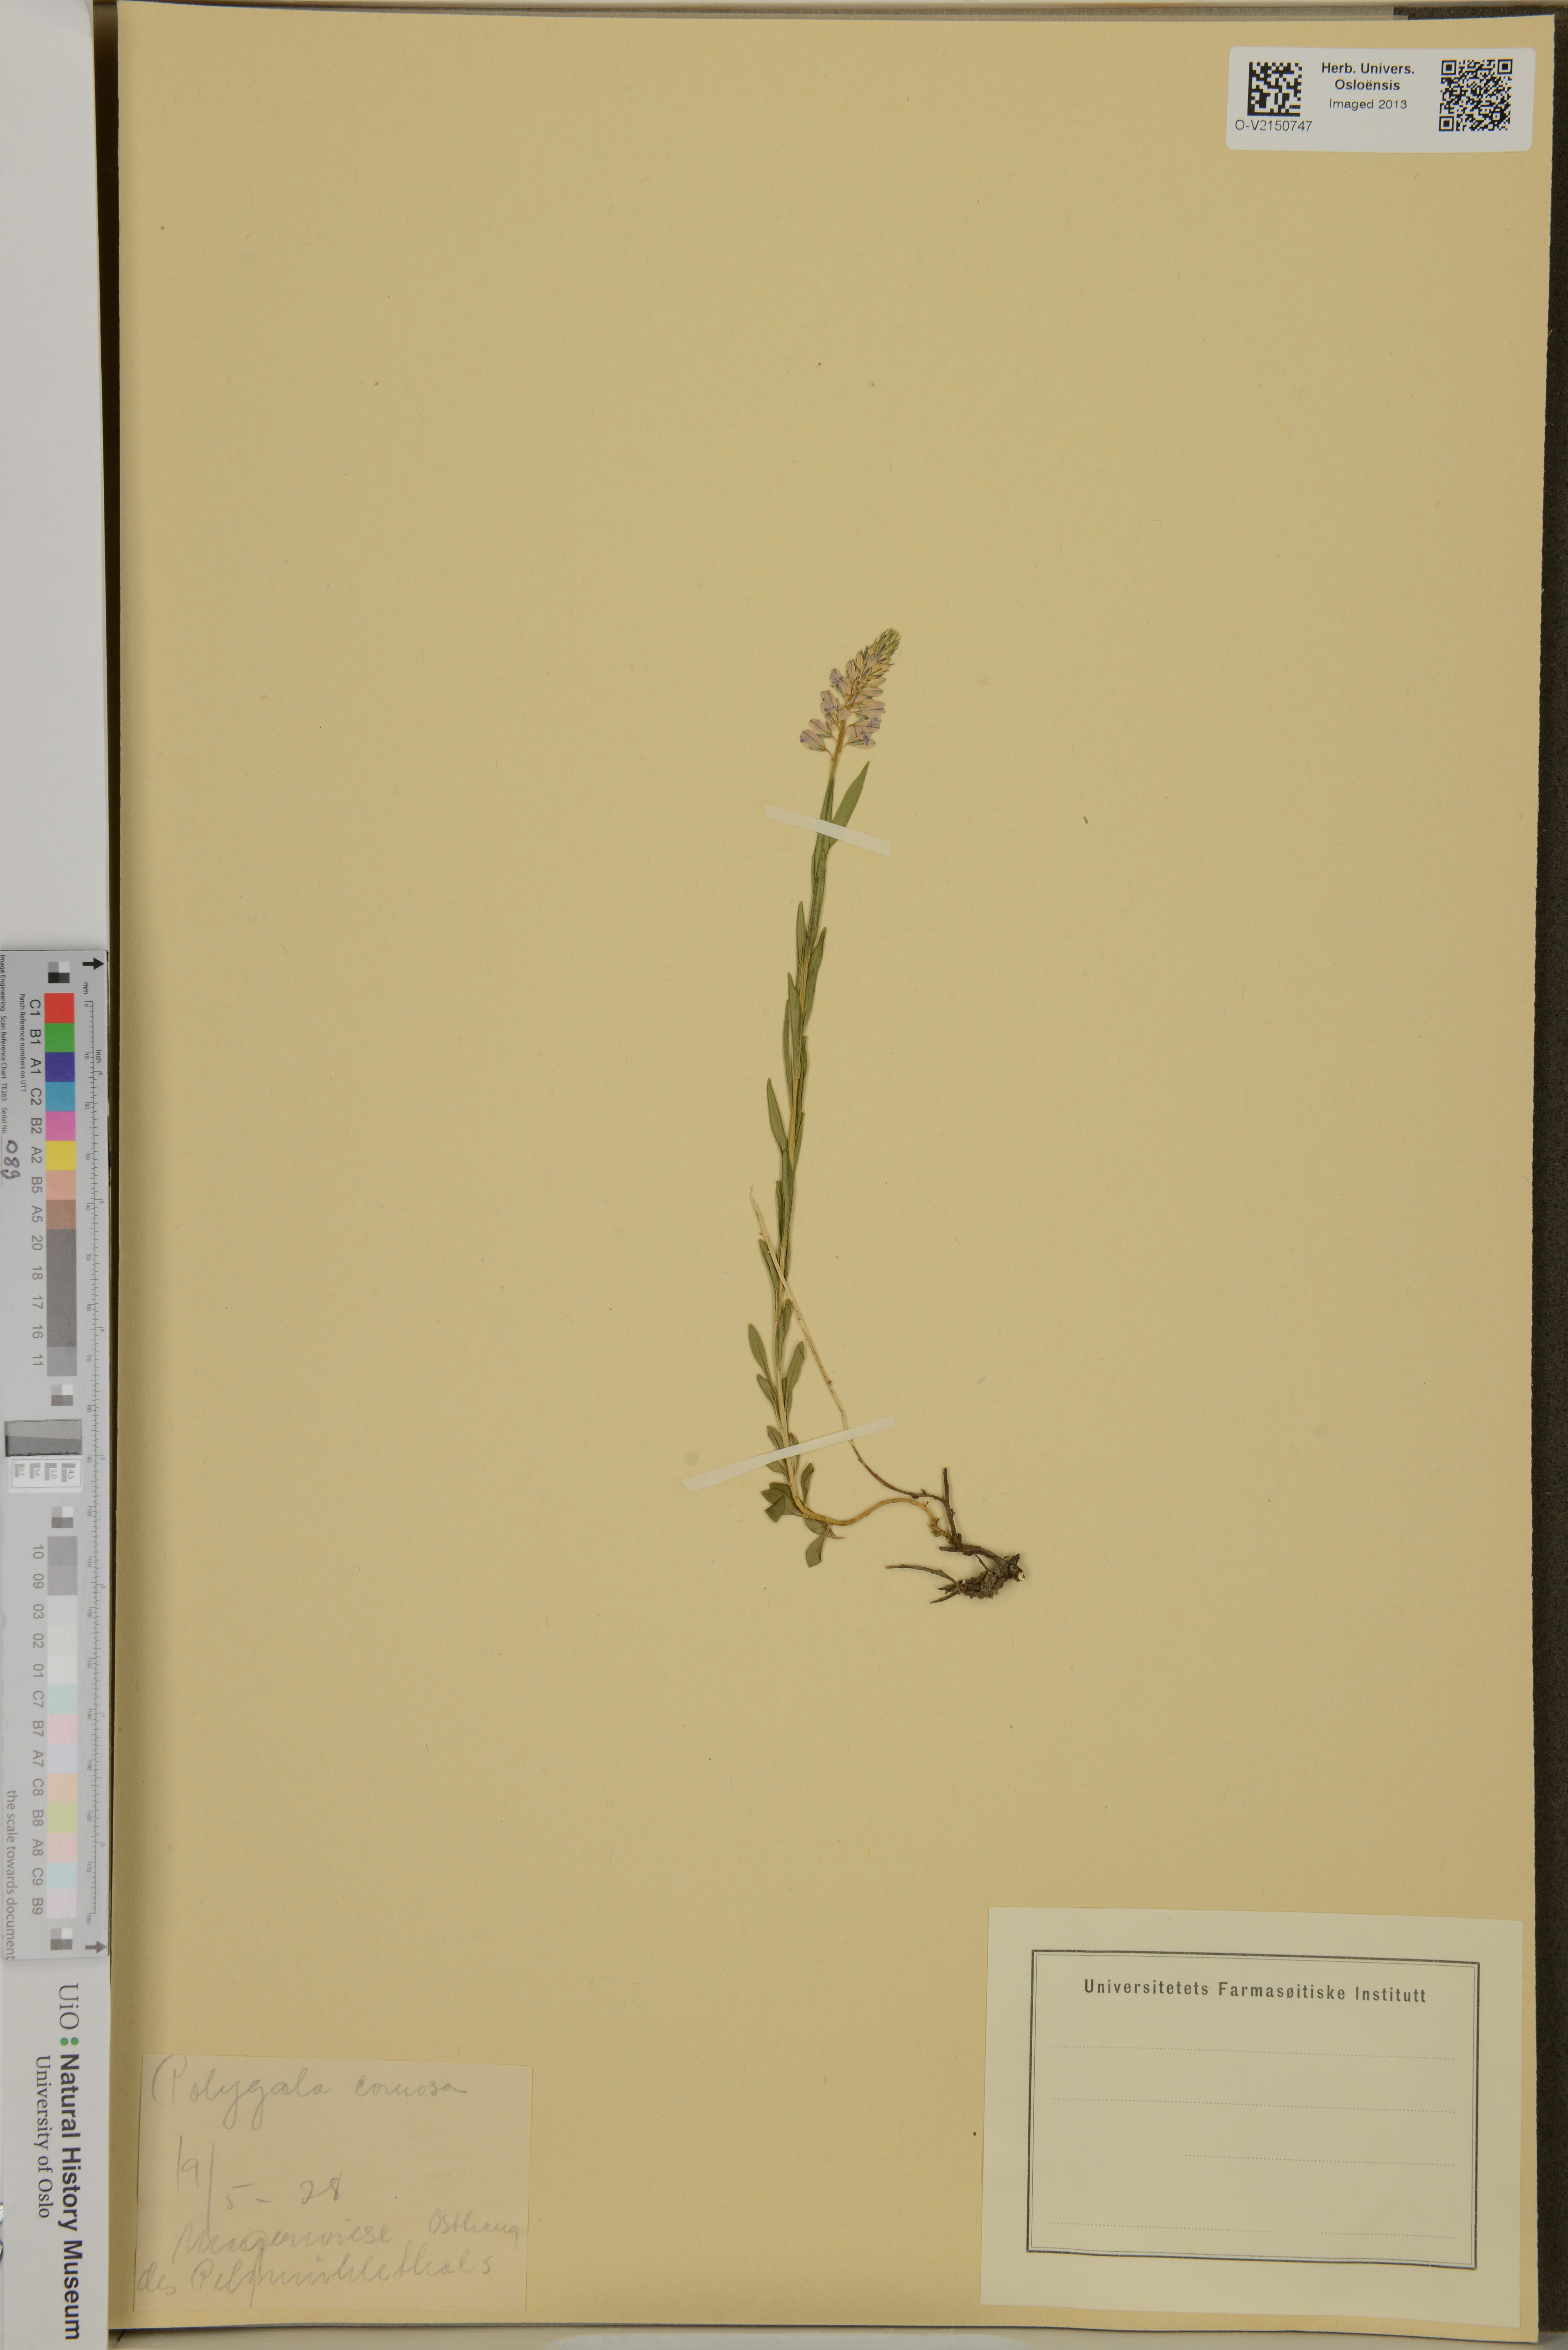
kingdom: Plantae
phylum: Tracheophyta
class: Magnoliopsida
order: Fabales
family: Polygalaceae
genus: Polygala
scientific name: Polygala comosa
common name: Tufted milkwort
